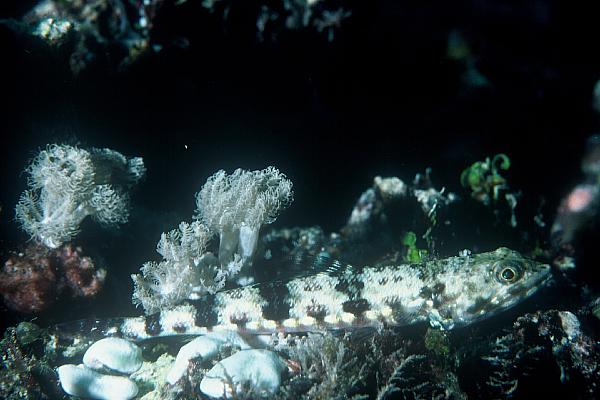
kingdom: Animalia
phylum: Chordata
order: Aulopiformes
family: Synodontidae
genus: Synodus
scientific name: Synodus variegatus
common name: Variegated lizardfish
